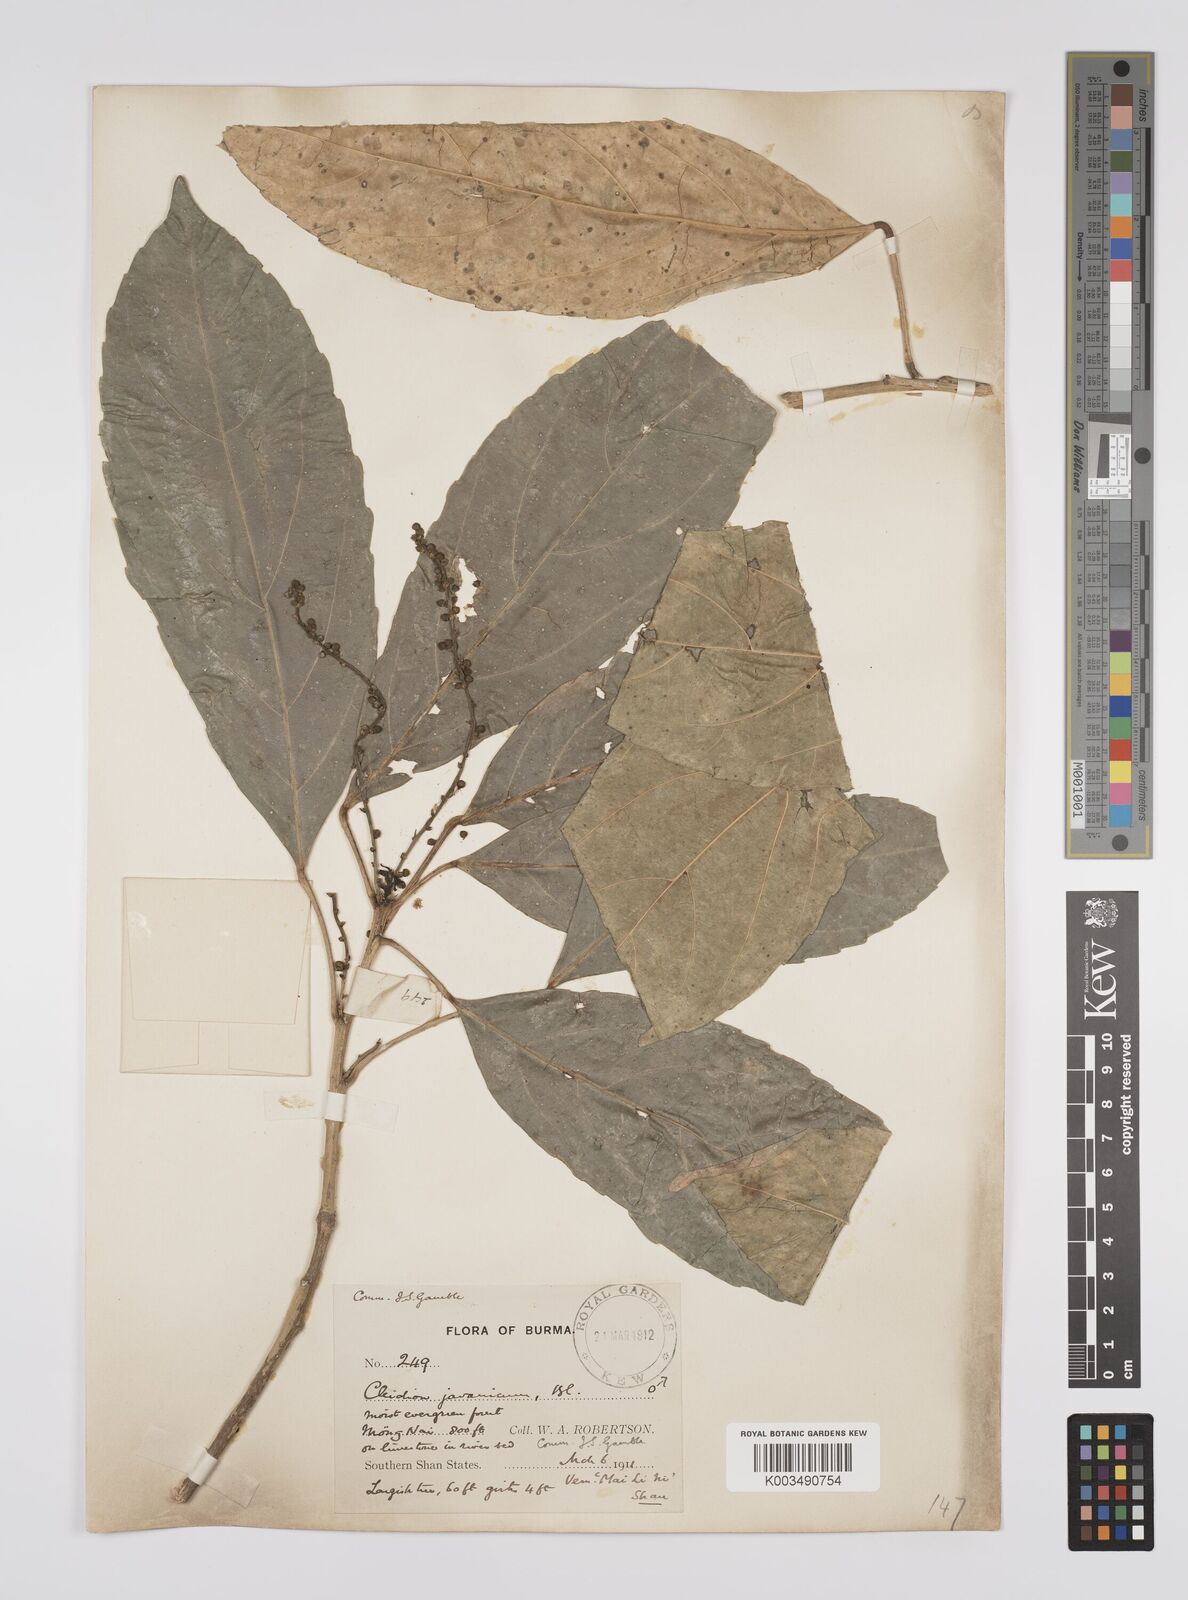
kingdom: Plantae
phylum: Tracheophyta
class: Magnoliopsida
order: Malpighiales
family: Euphorbiaceae
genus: Acalypha
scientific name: Acalypha spiciflora
